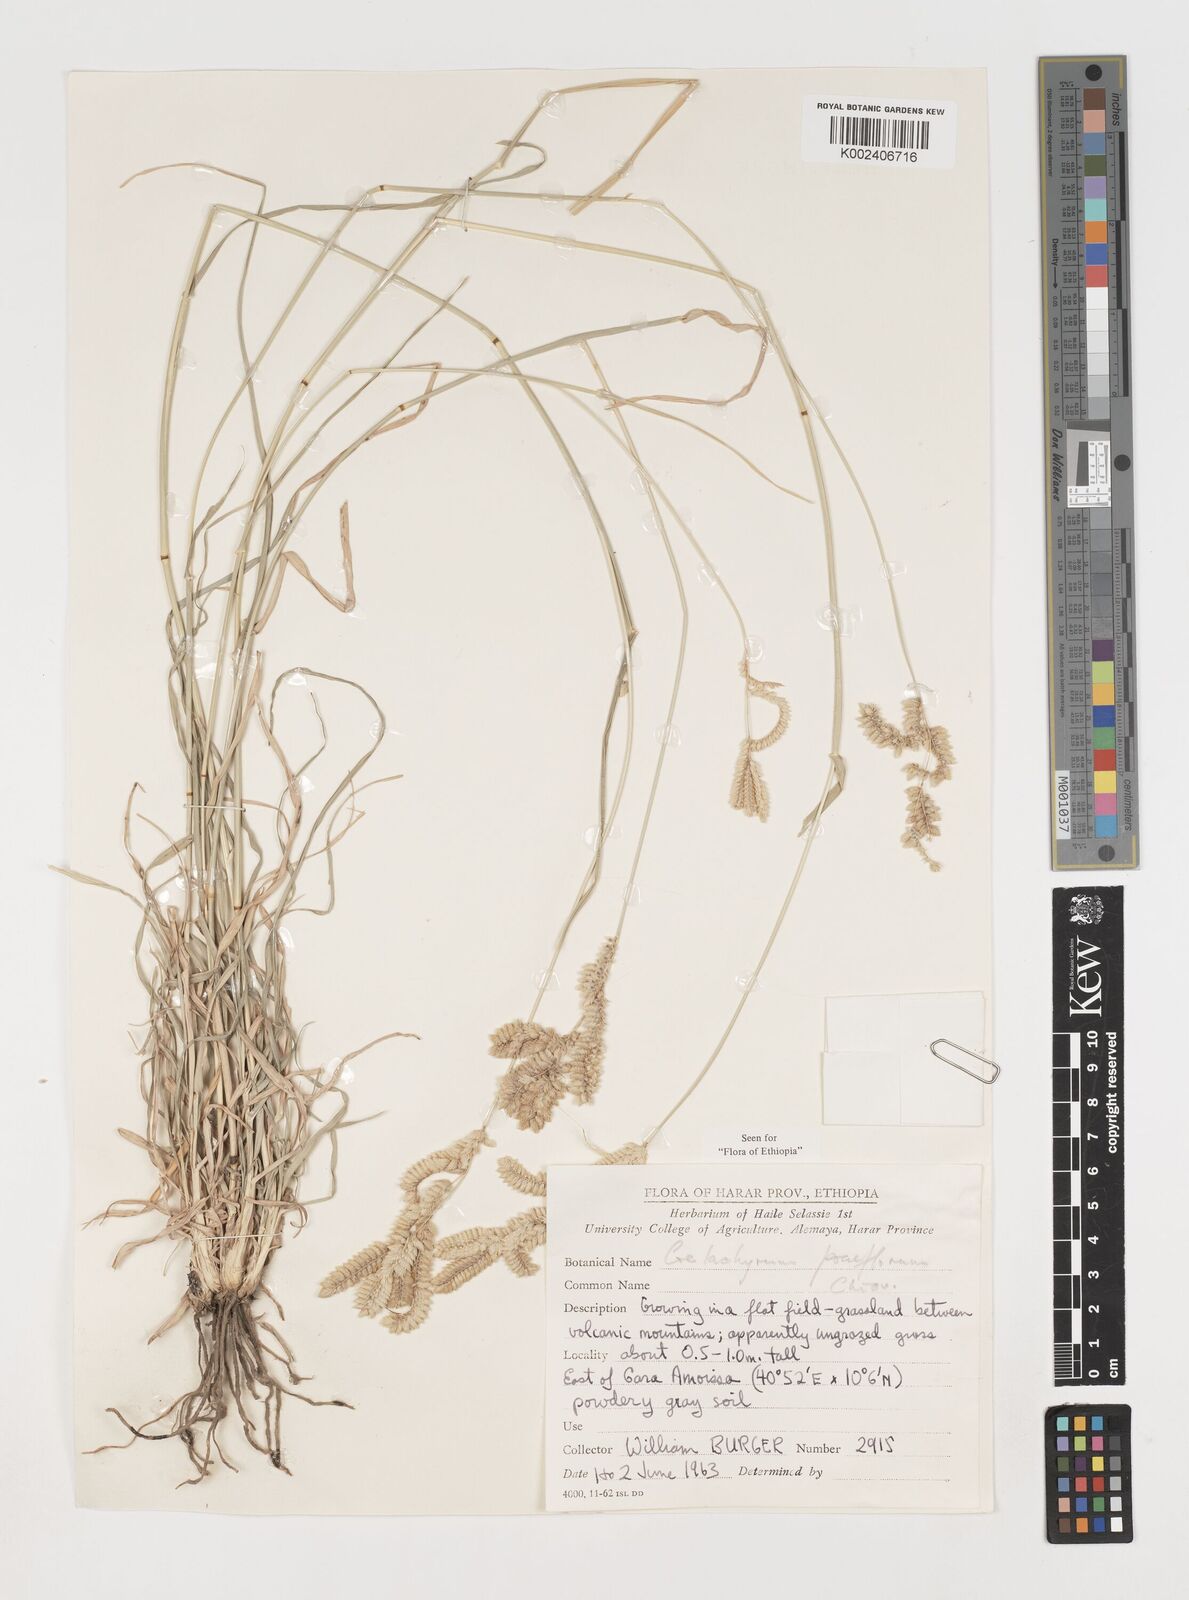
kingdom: Plantae
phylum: Tracheophyta
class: Liliopsida
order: Poales
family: Poaceae
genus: Coelachyrum
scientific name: Coelachyrum poiflorum
